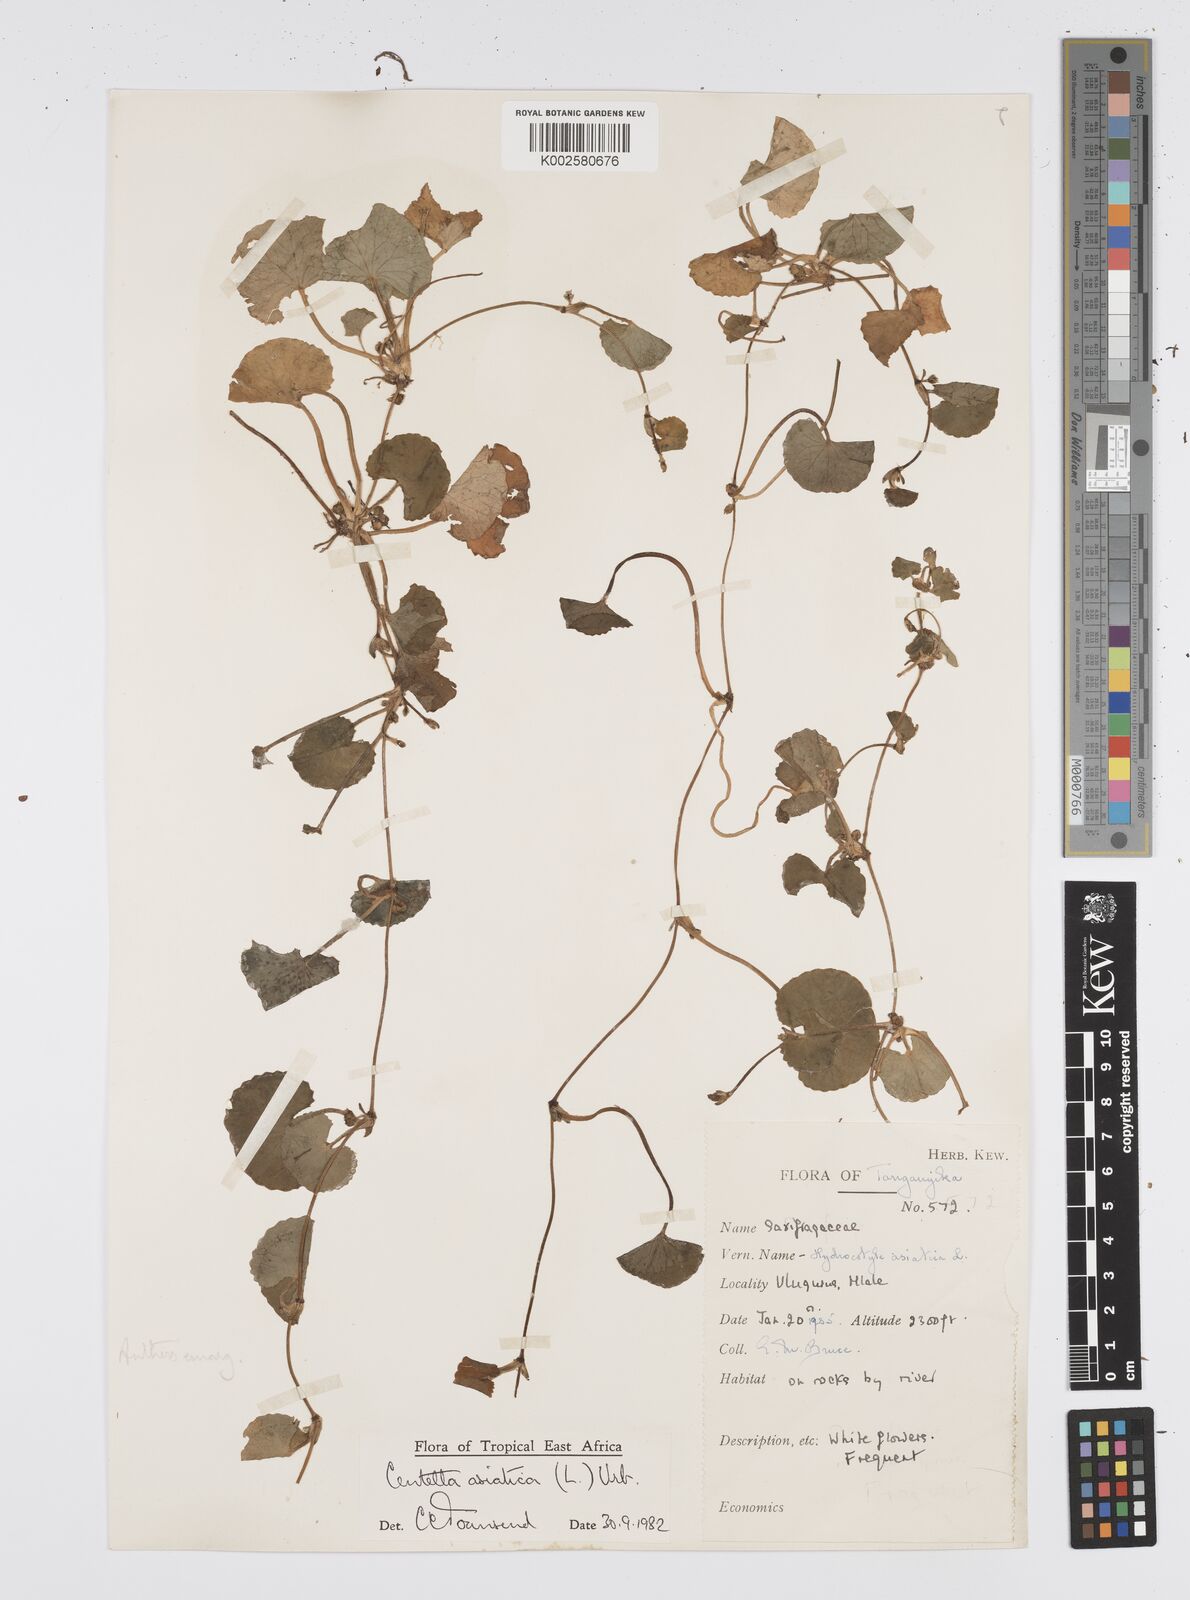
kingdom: Plantae
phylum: Tracheophyta
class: Magnoliopsida
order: Apiales
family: Apiaceae
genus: Centella
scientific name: Centella asiatica
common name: Spadeleaf
